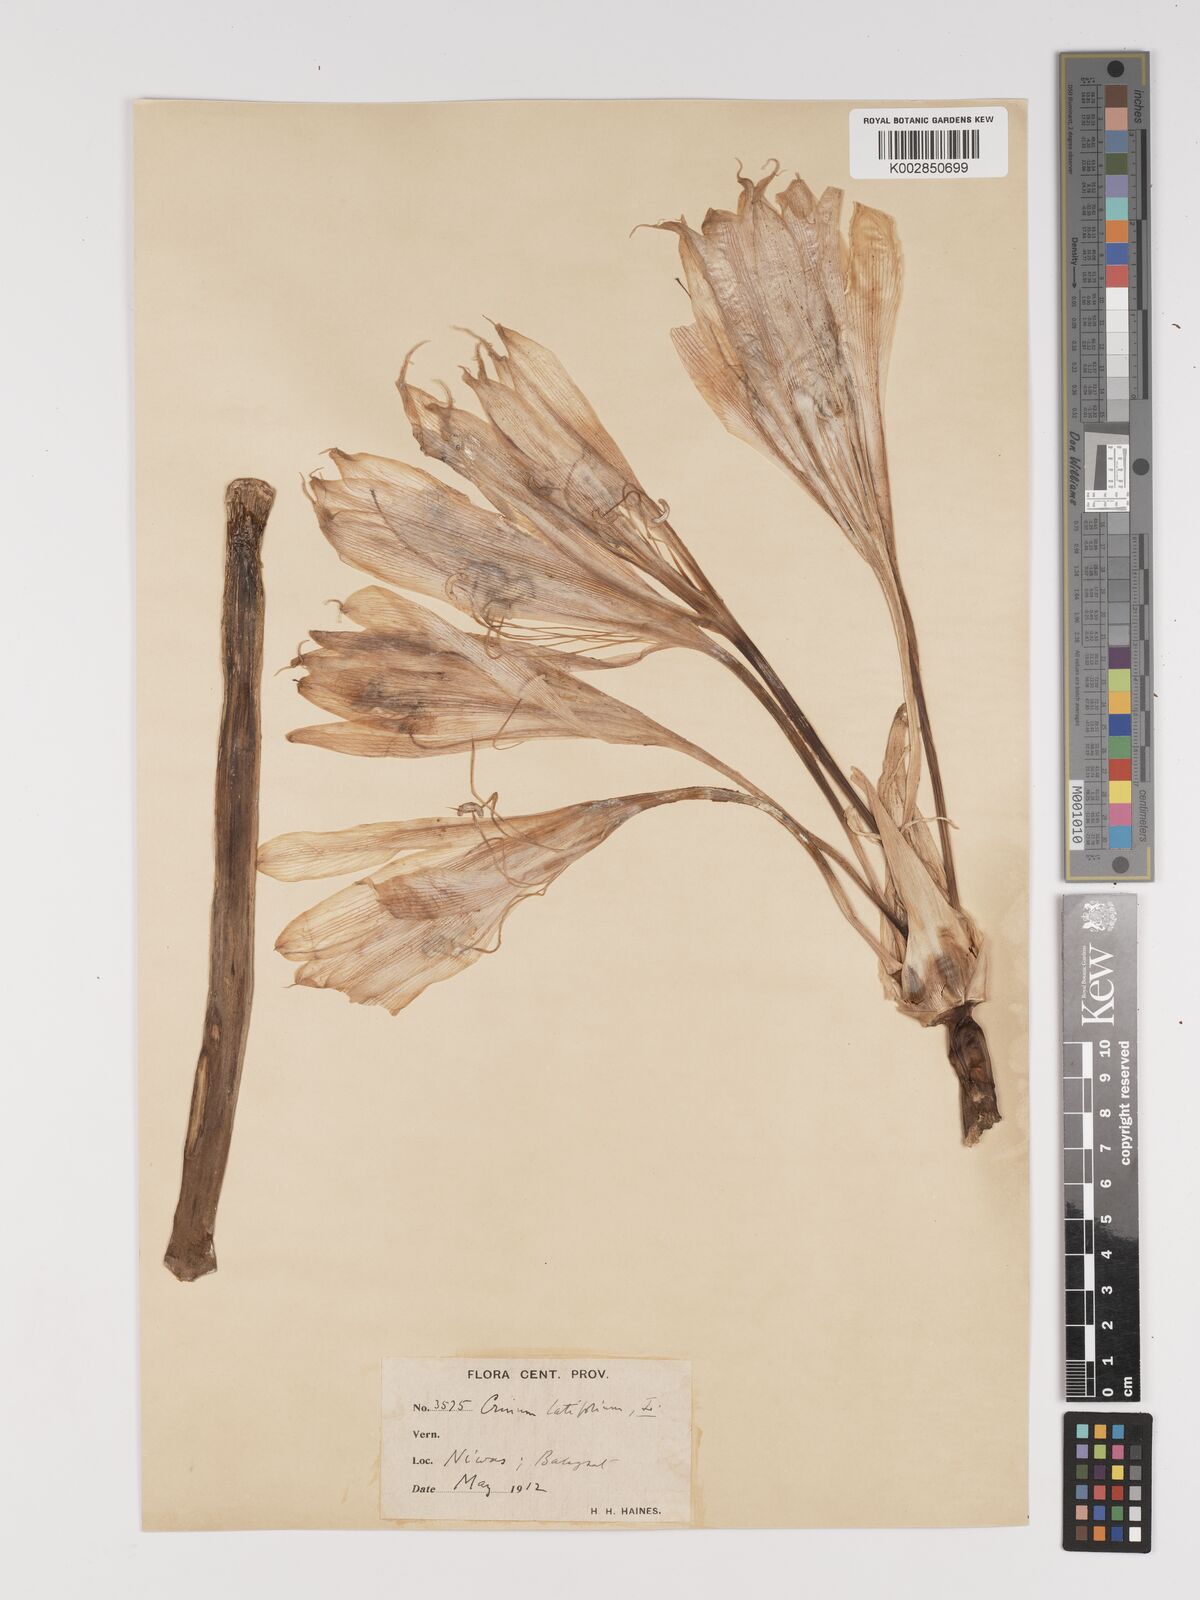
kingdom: Plantae
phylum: Tracheophyta
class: Liliopsida
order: Asparagales
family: Amaryllidaceae
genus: Crinum
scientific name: Crinum latifolium
